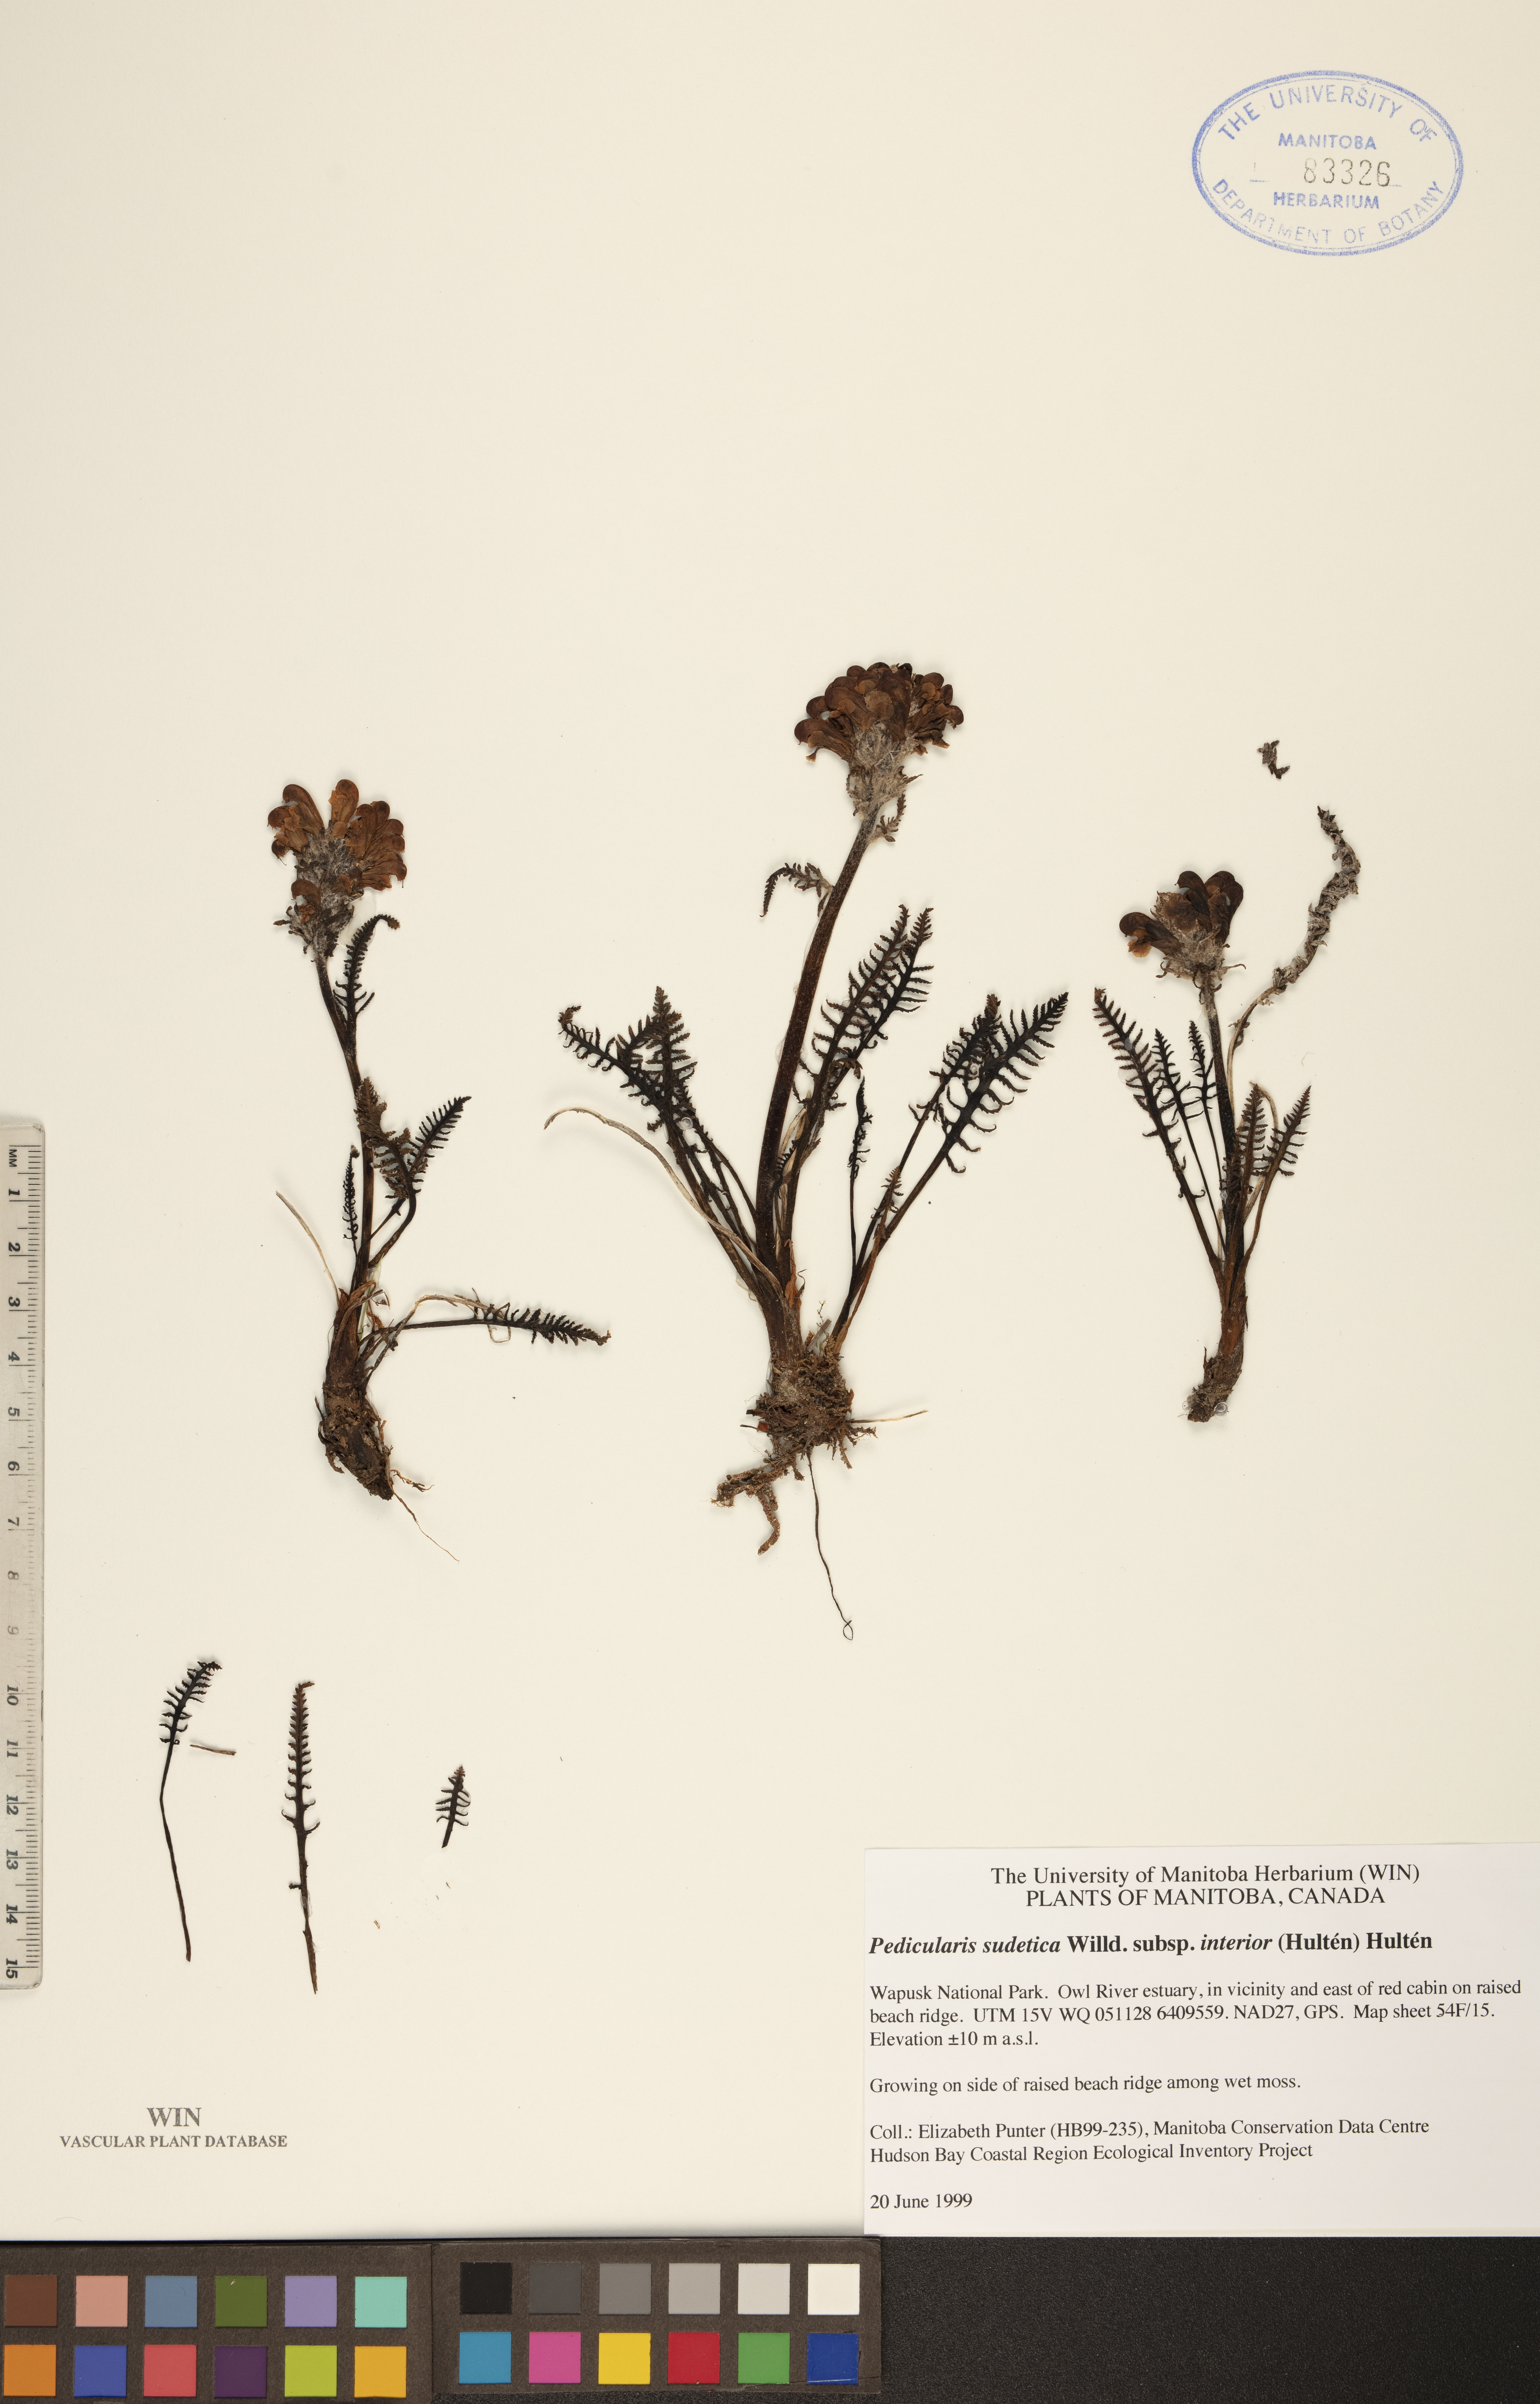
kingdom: Plantae
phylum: Tracheophyta
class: Magnoliopsida
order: Lamiales
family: Orobanchaceae
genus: Pedicularis
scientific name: Pedicularis interior
